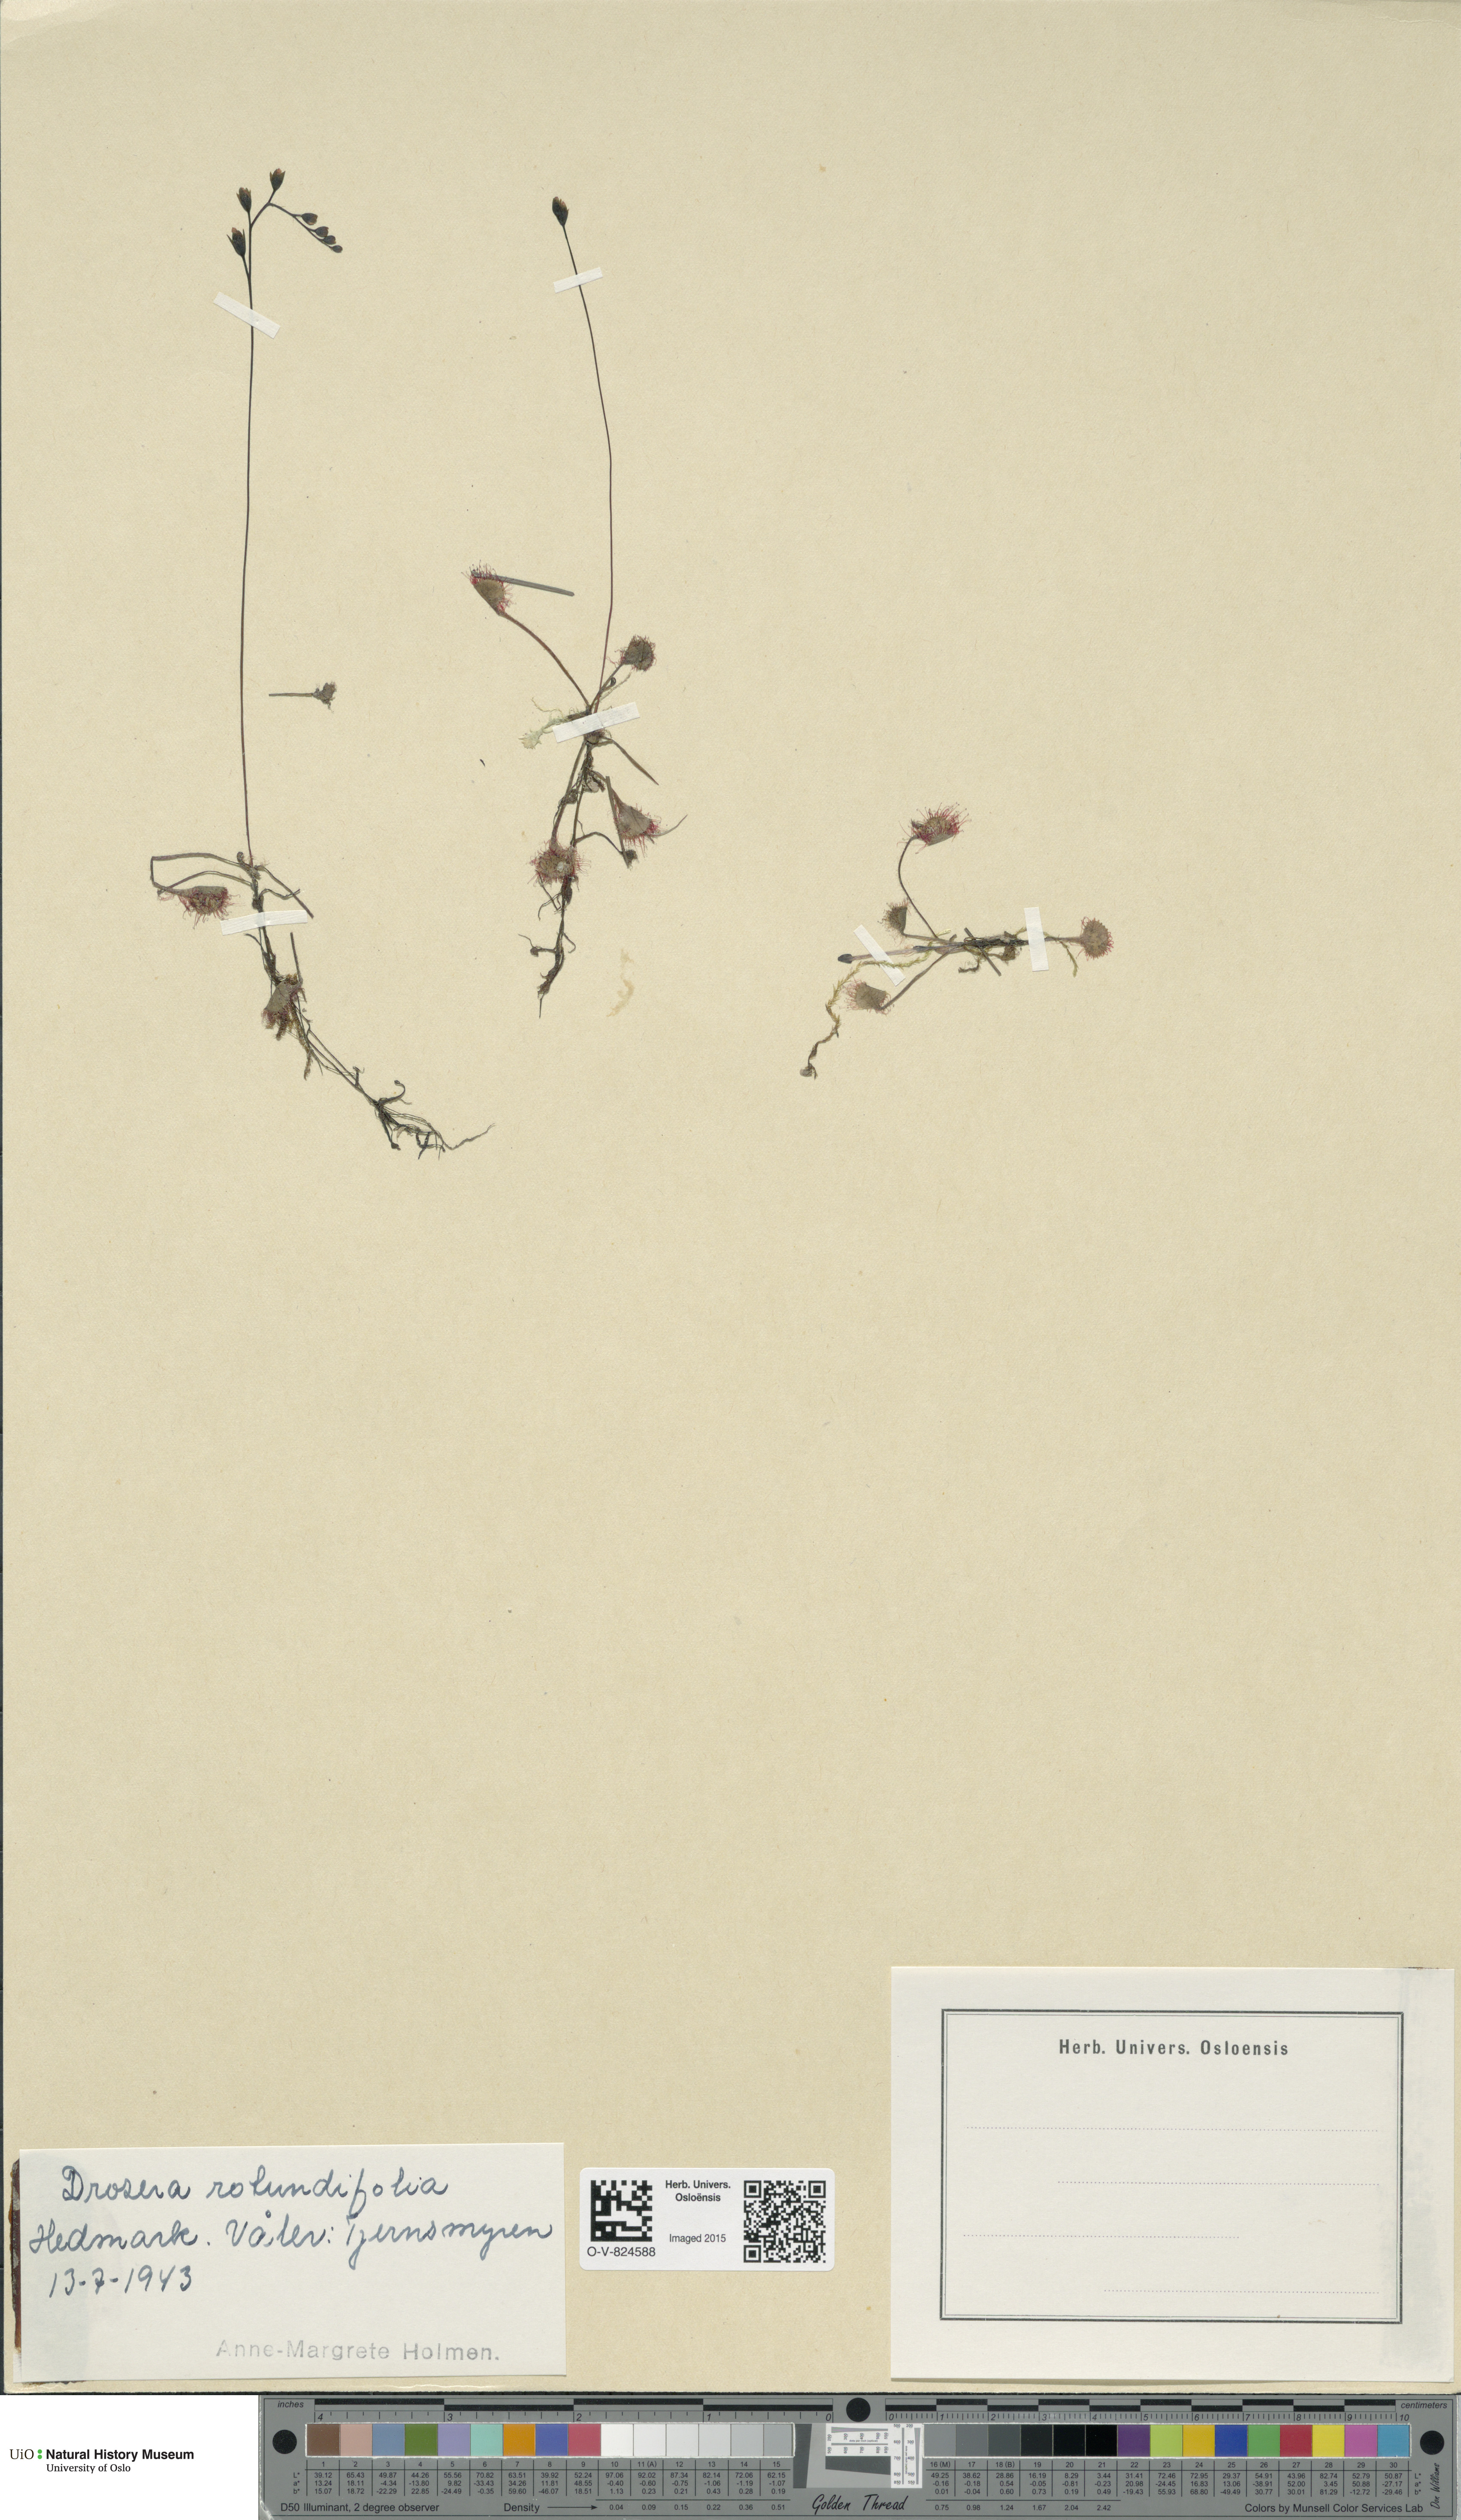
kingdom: Plantae
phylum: Tracheophyta
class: Magnoliopsida
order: Caryophyllales
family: Droseraceae
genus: Drosera
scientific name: Drosera rotundifolia
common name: Round-leaved sundew
